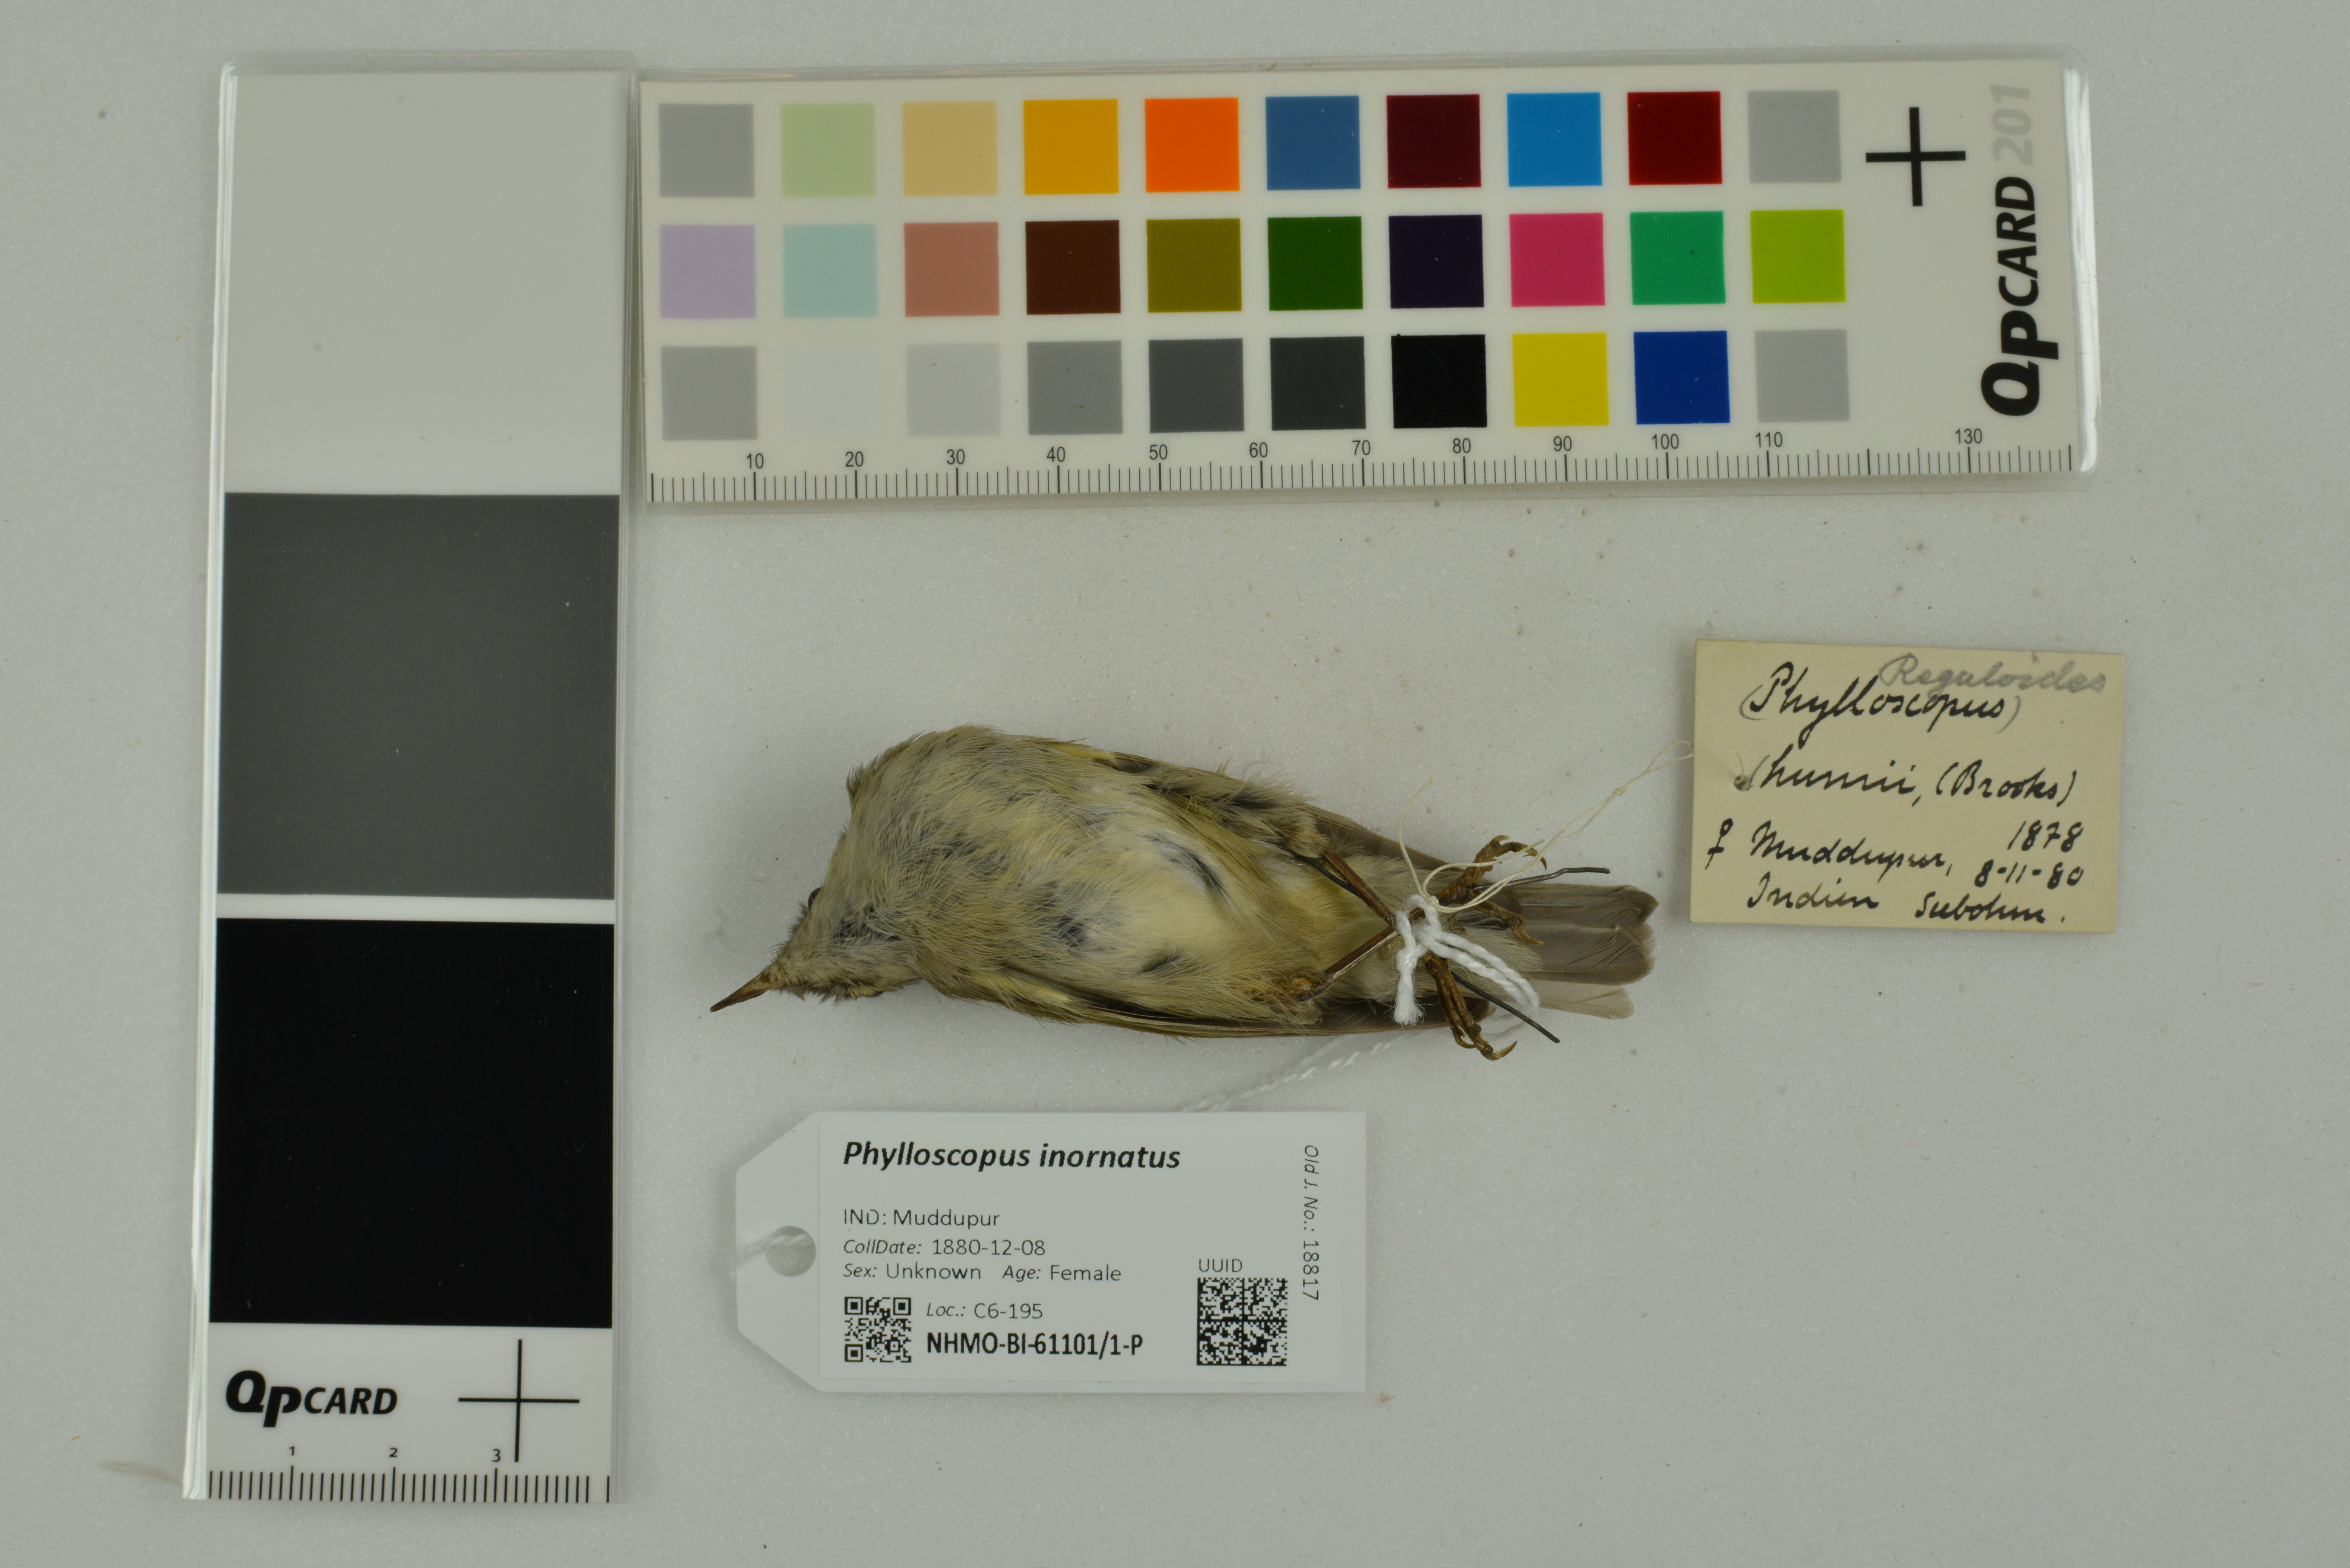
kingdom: Animalia
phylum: Chordata
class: Aves
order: Passeriformes
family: Phylloscopidae
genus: Phylloscopus
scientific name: Phylloscopus inornatus
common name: Yellow-browed warbler
